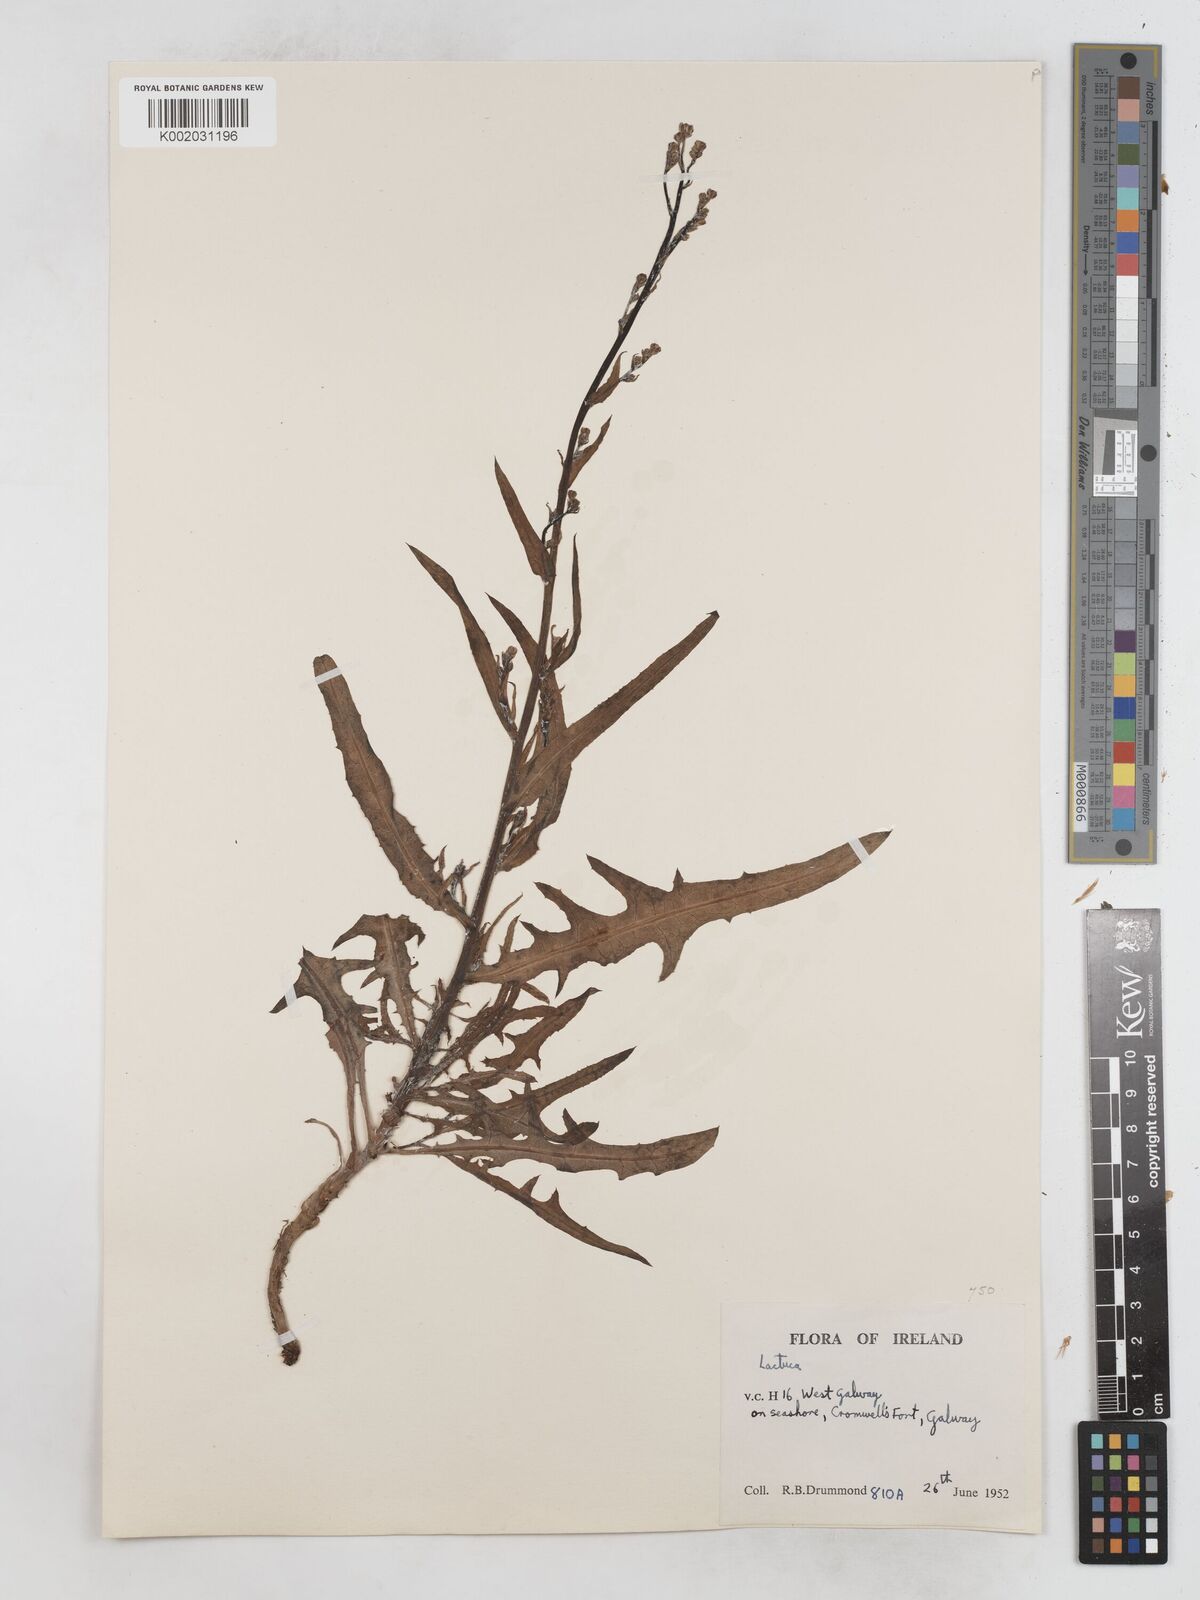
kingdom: Plantae
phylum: Tracheophyta
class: Magnoliopsida
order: Asterales
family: Asteraceae
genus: Lactuca
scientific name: Lactuca tatarica
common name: Blue lettuce
